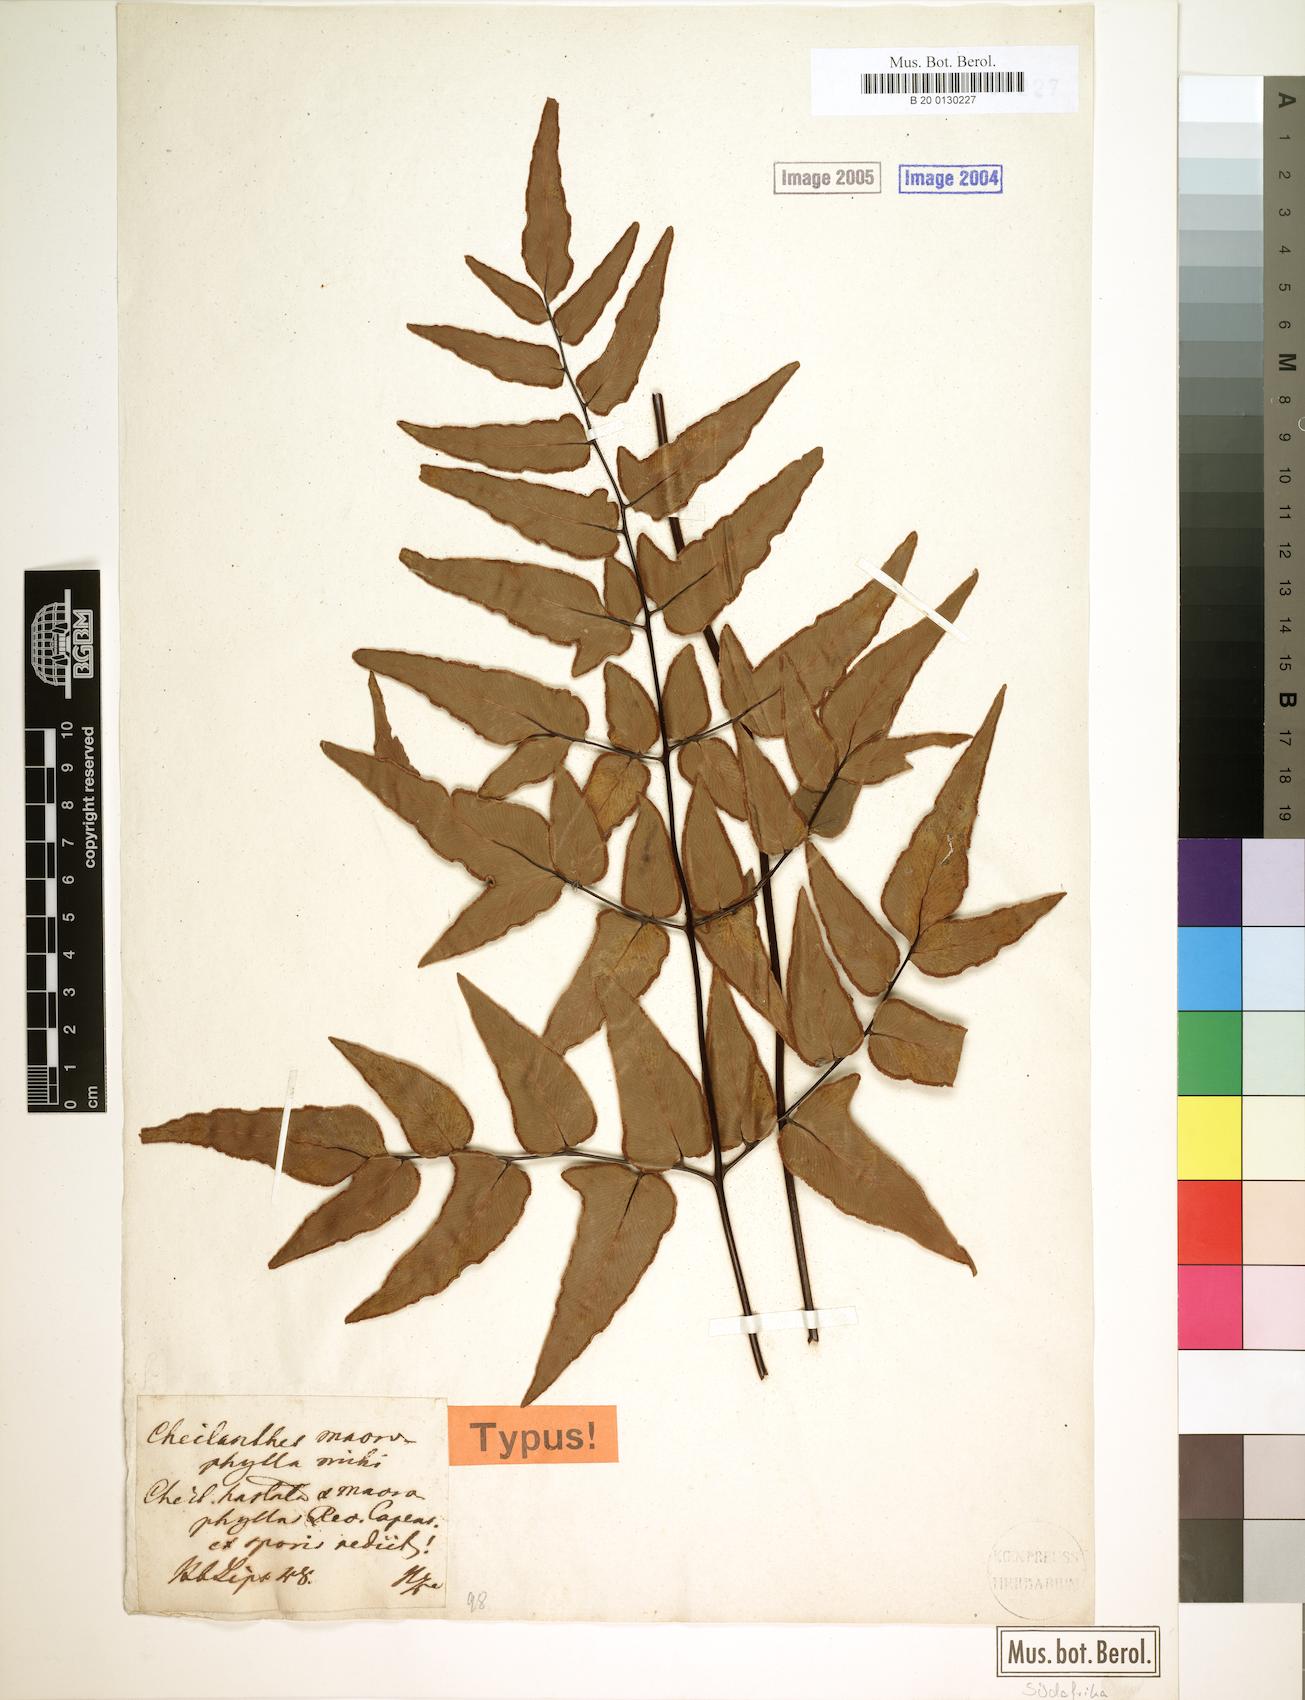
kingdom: Plantae
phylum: Tracheophyta
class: Polypodiopsida
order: Polypodiales
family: Pteridaceae
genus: Cheilanthes
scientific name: Cheilanthes viridis
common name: Green cliffbrake
